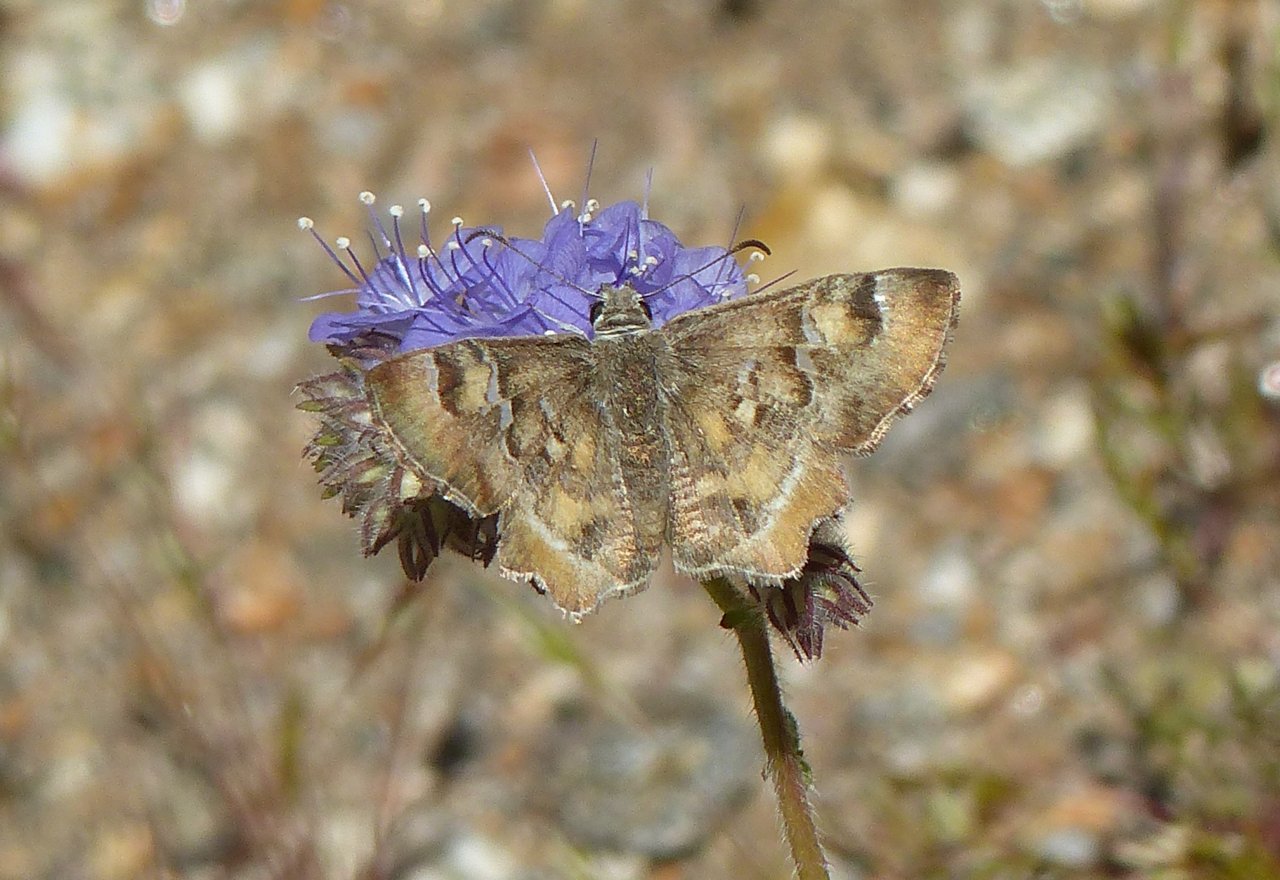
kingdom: Animalia
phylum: Arthropoda
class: Insecta
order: Lepidoptera
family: Hesperiidae
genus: Systasea
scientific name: Systasea zampa
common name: Arizona Powdered-Skipper
